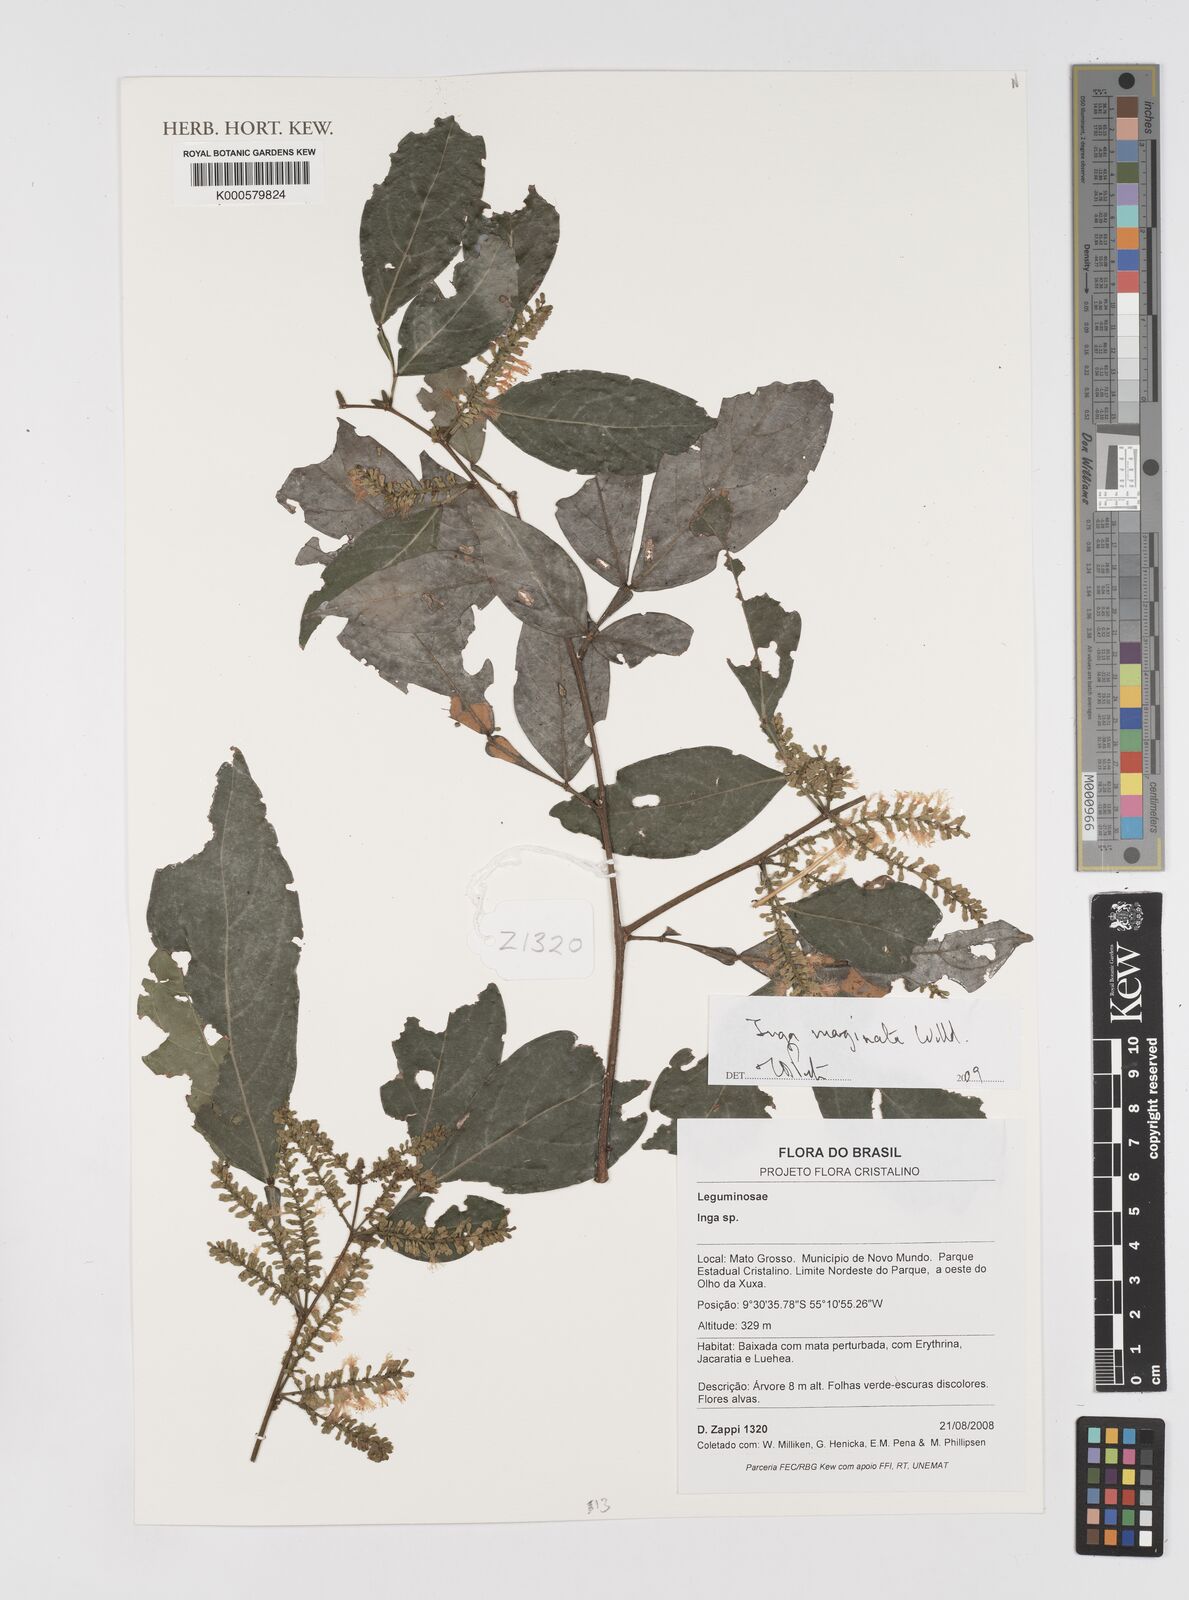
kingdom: Plantae
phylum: Tracheophyta
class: Magnoliopsida
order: Fabales
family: Fabaceae
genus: Inga
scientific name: Inga marginata
